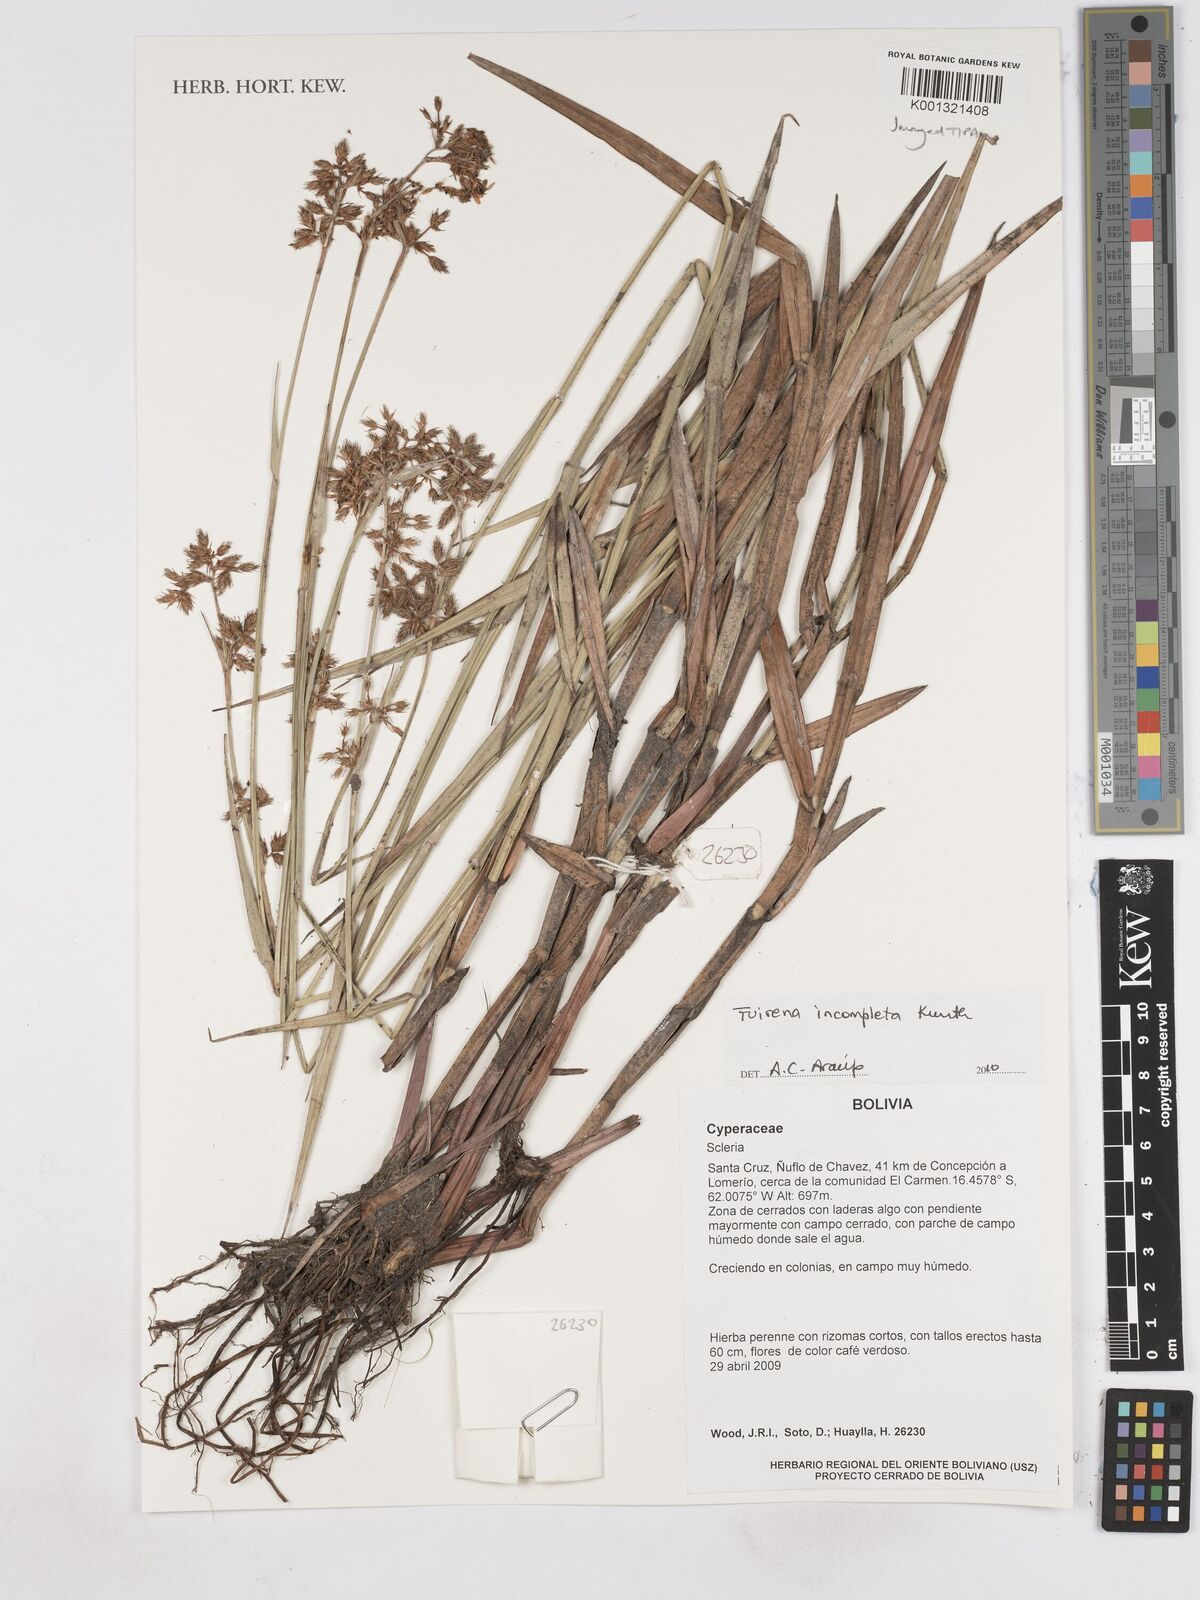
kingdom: Plantae
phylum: Tracheophyta
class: Liliopsida
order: Poales
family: Cyperaceae
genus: Fuirena
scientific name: Fuirena incompleta
